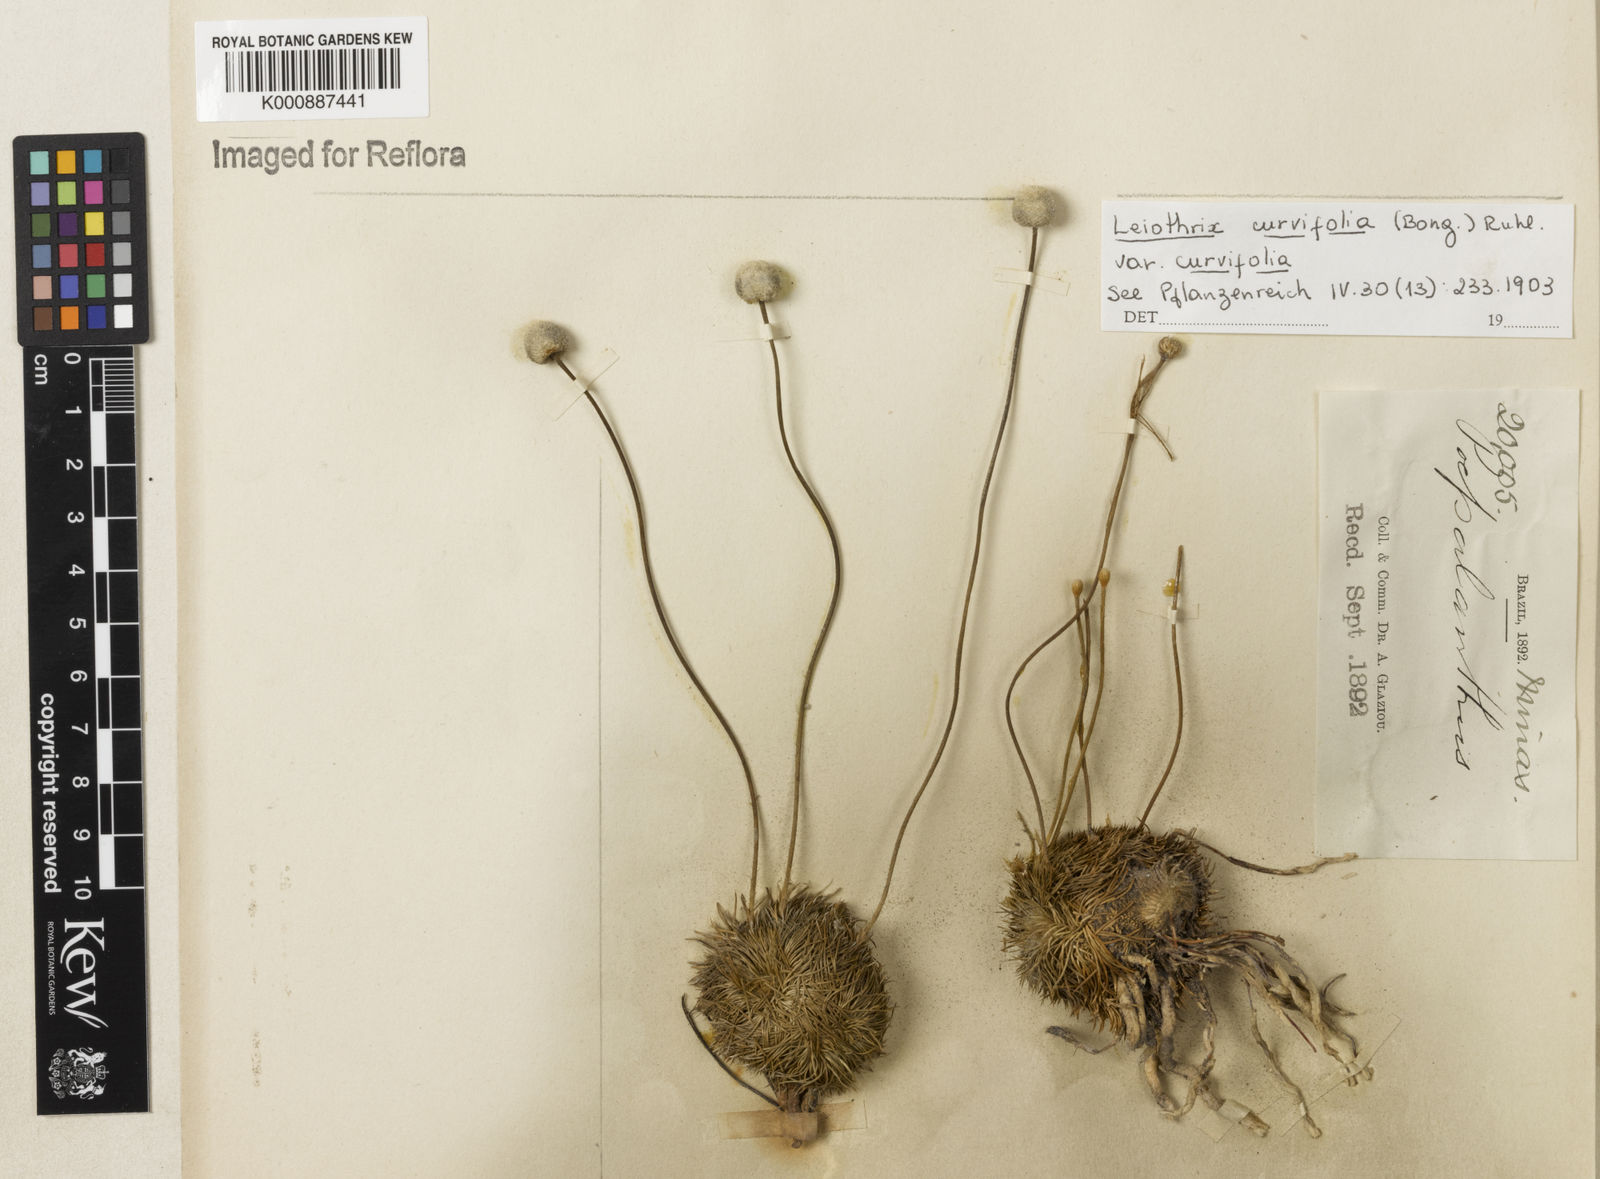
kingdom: Plantae
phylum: Tracheophyta
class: Liliopsida
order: Poales
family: Eriocaulaceae
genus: Leiothrix
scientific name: Leiothrix curvifolia
